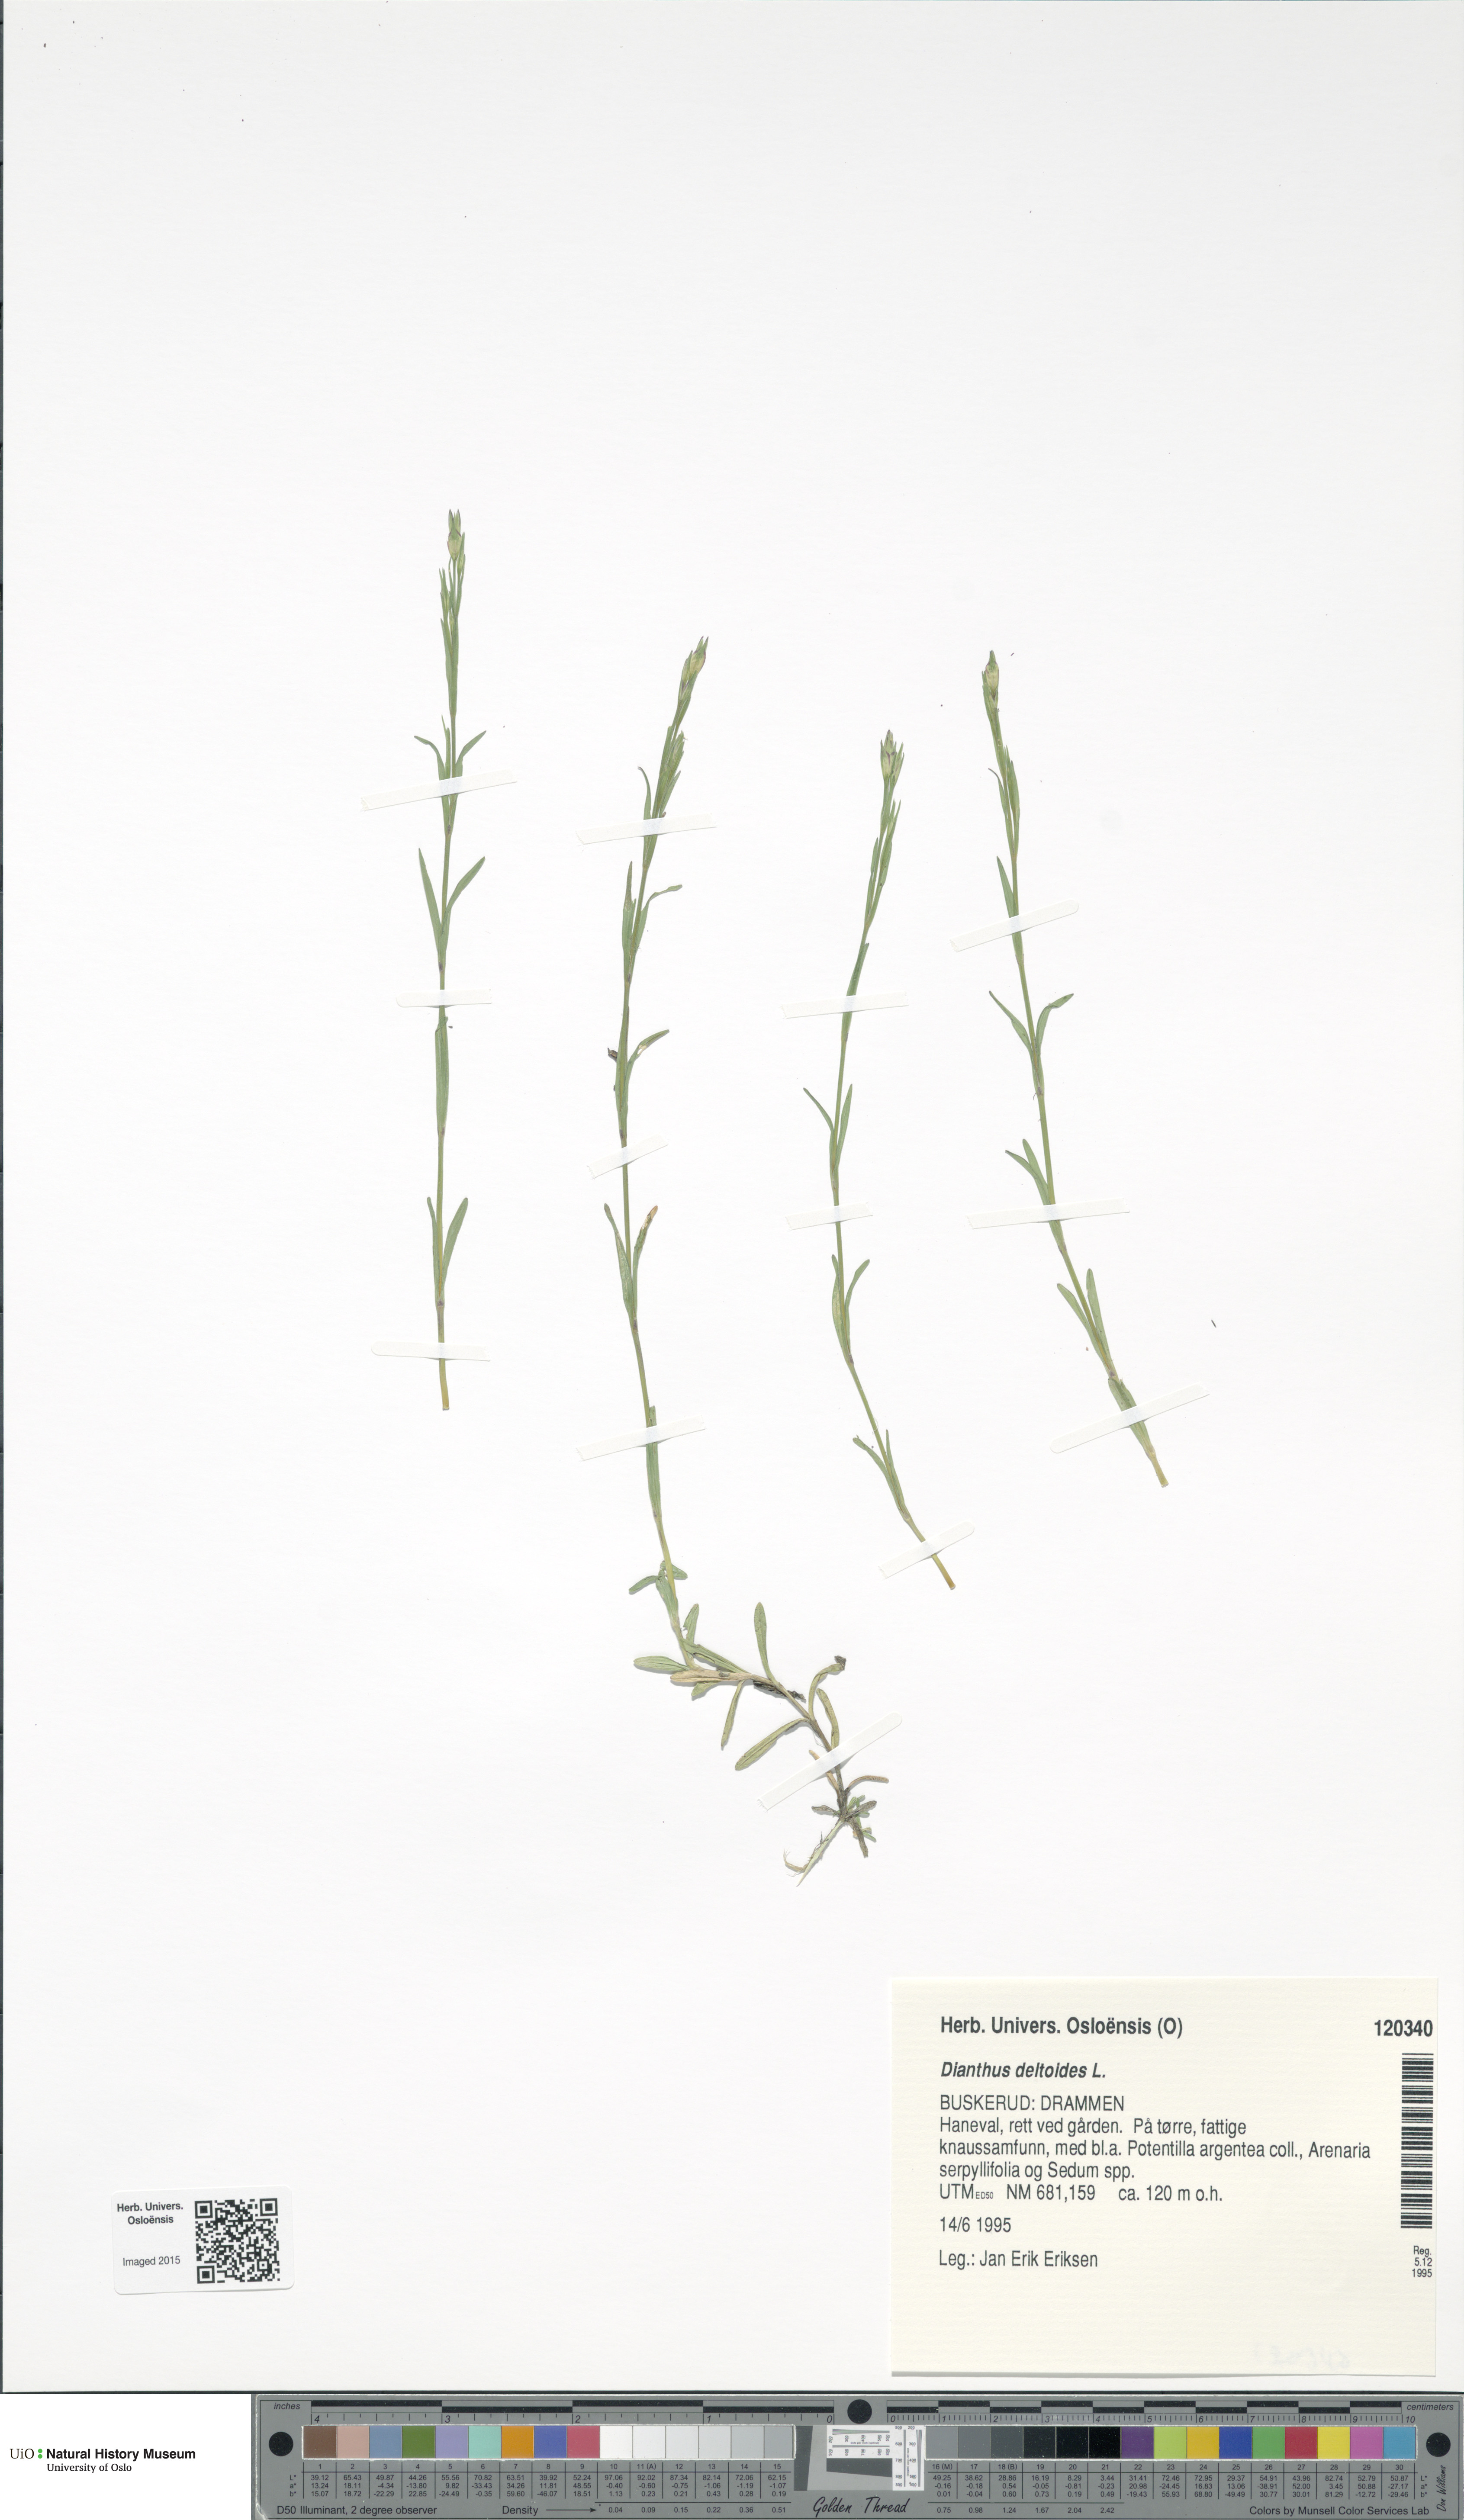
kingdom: Plantae
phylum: Tracheophyta
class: Magnoliopsida
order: Caryophyllales
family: Caryophyllaceae
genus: Dianthus
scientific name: Dianthus deltoides
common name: Maiden pink
